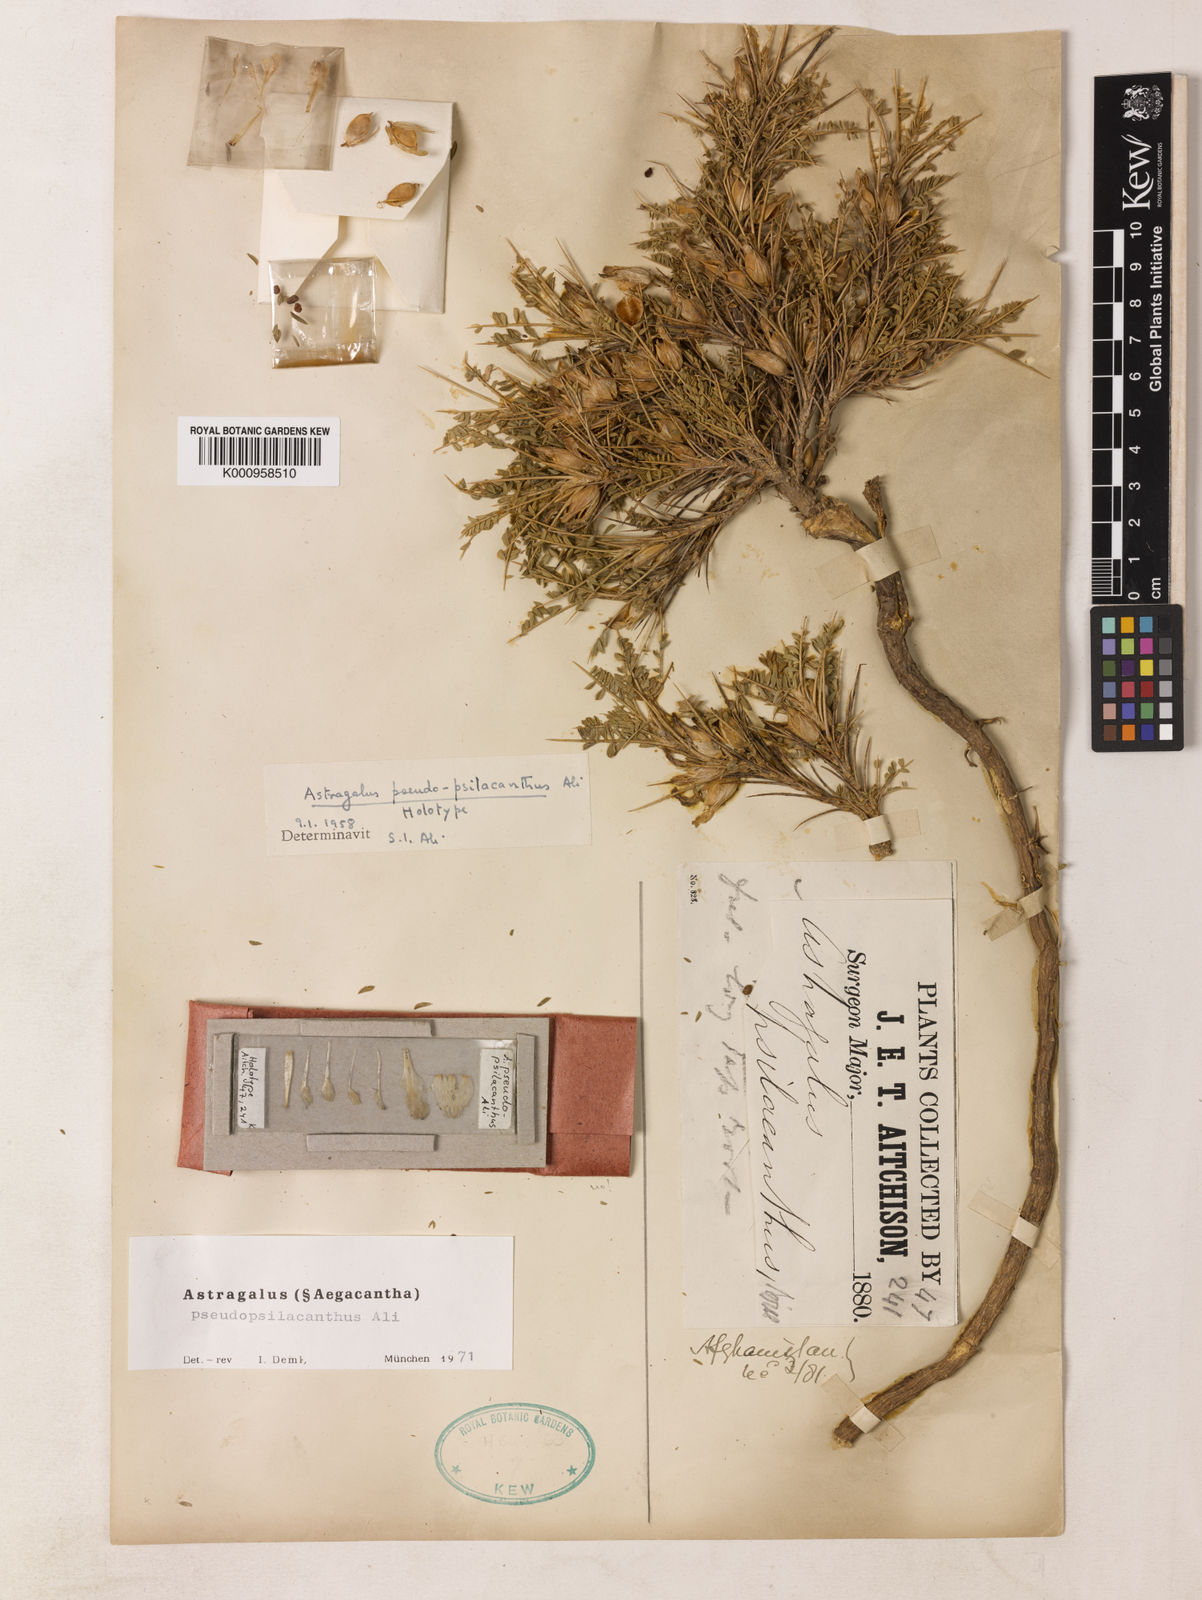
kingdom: Plantae
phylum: Tracheophyta
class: Magnoliopsida
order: Fabales
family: Fabaceae
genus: Astragalus
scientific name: Astragalus discernendus
